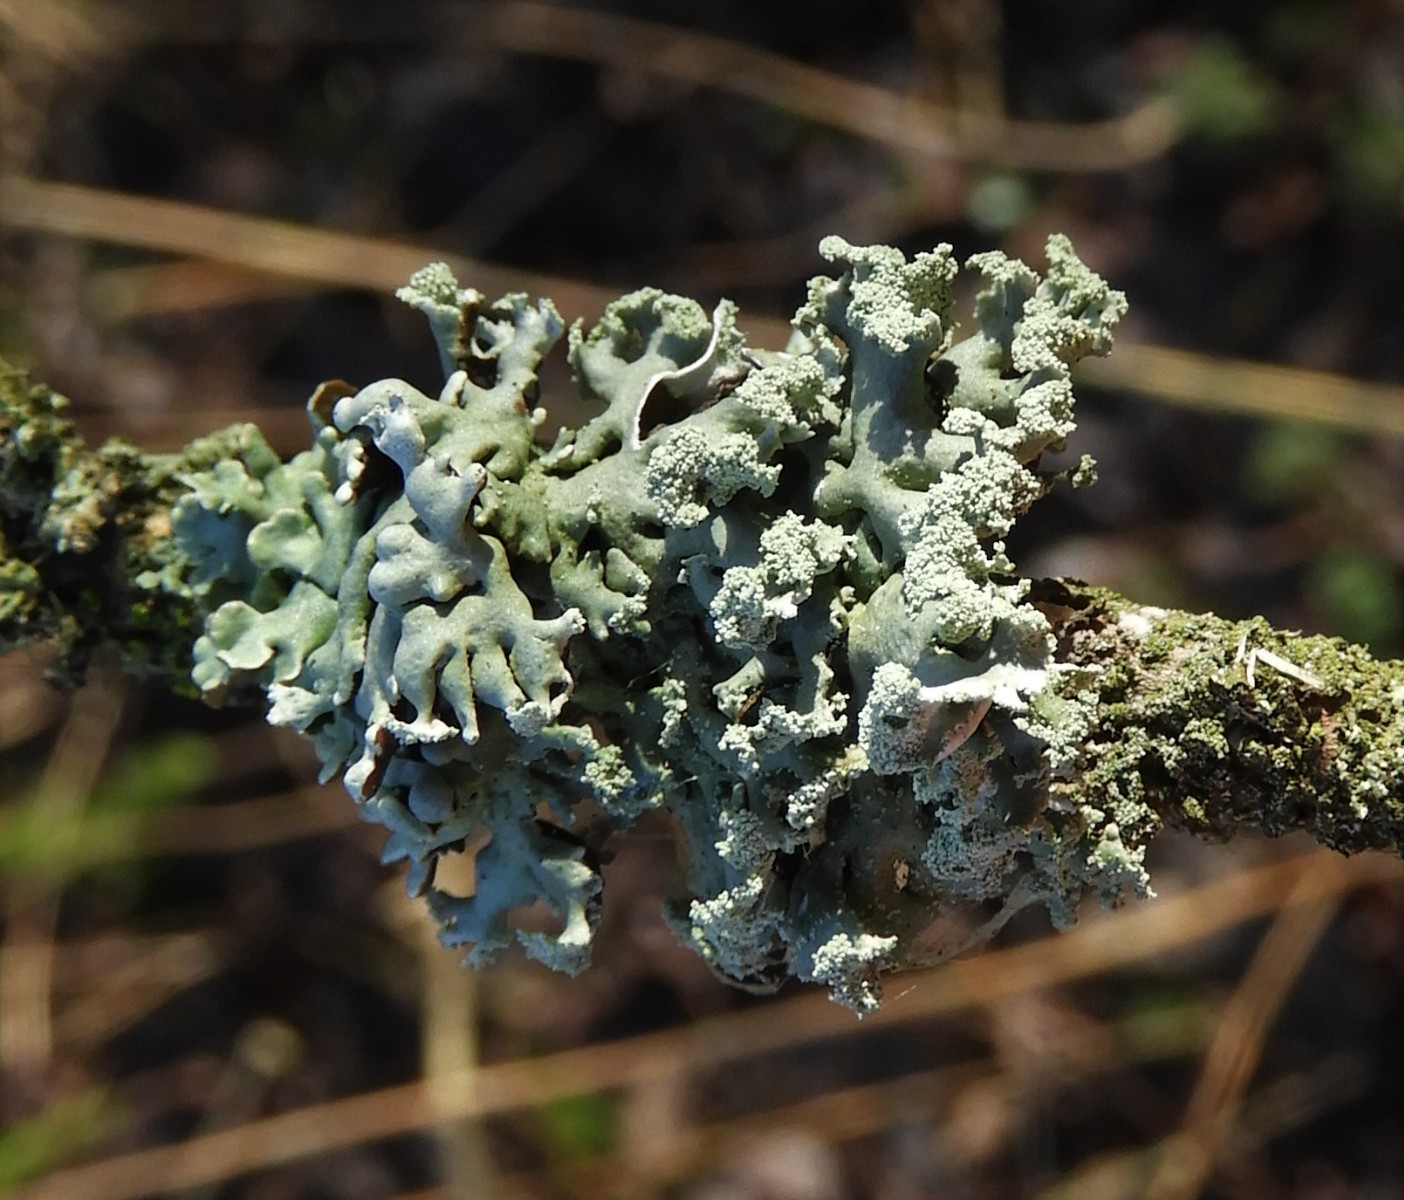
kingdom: Fungi
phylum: Ascomycota
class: Lecanoromycetes
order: Lecanorales
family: Parmeliaceae
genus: Hypogymnia
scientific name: Hypogymnia physodes
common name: almindelig kvistlav
